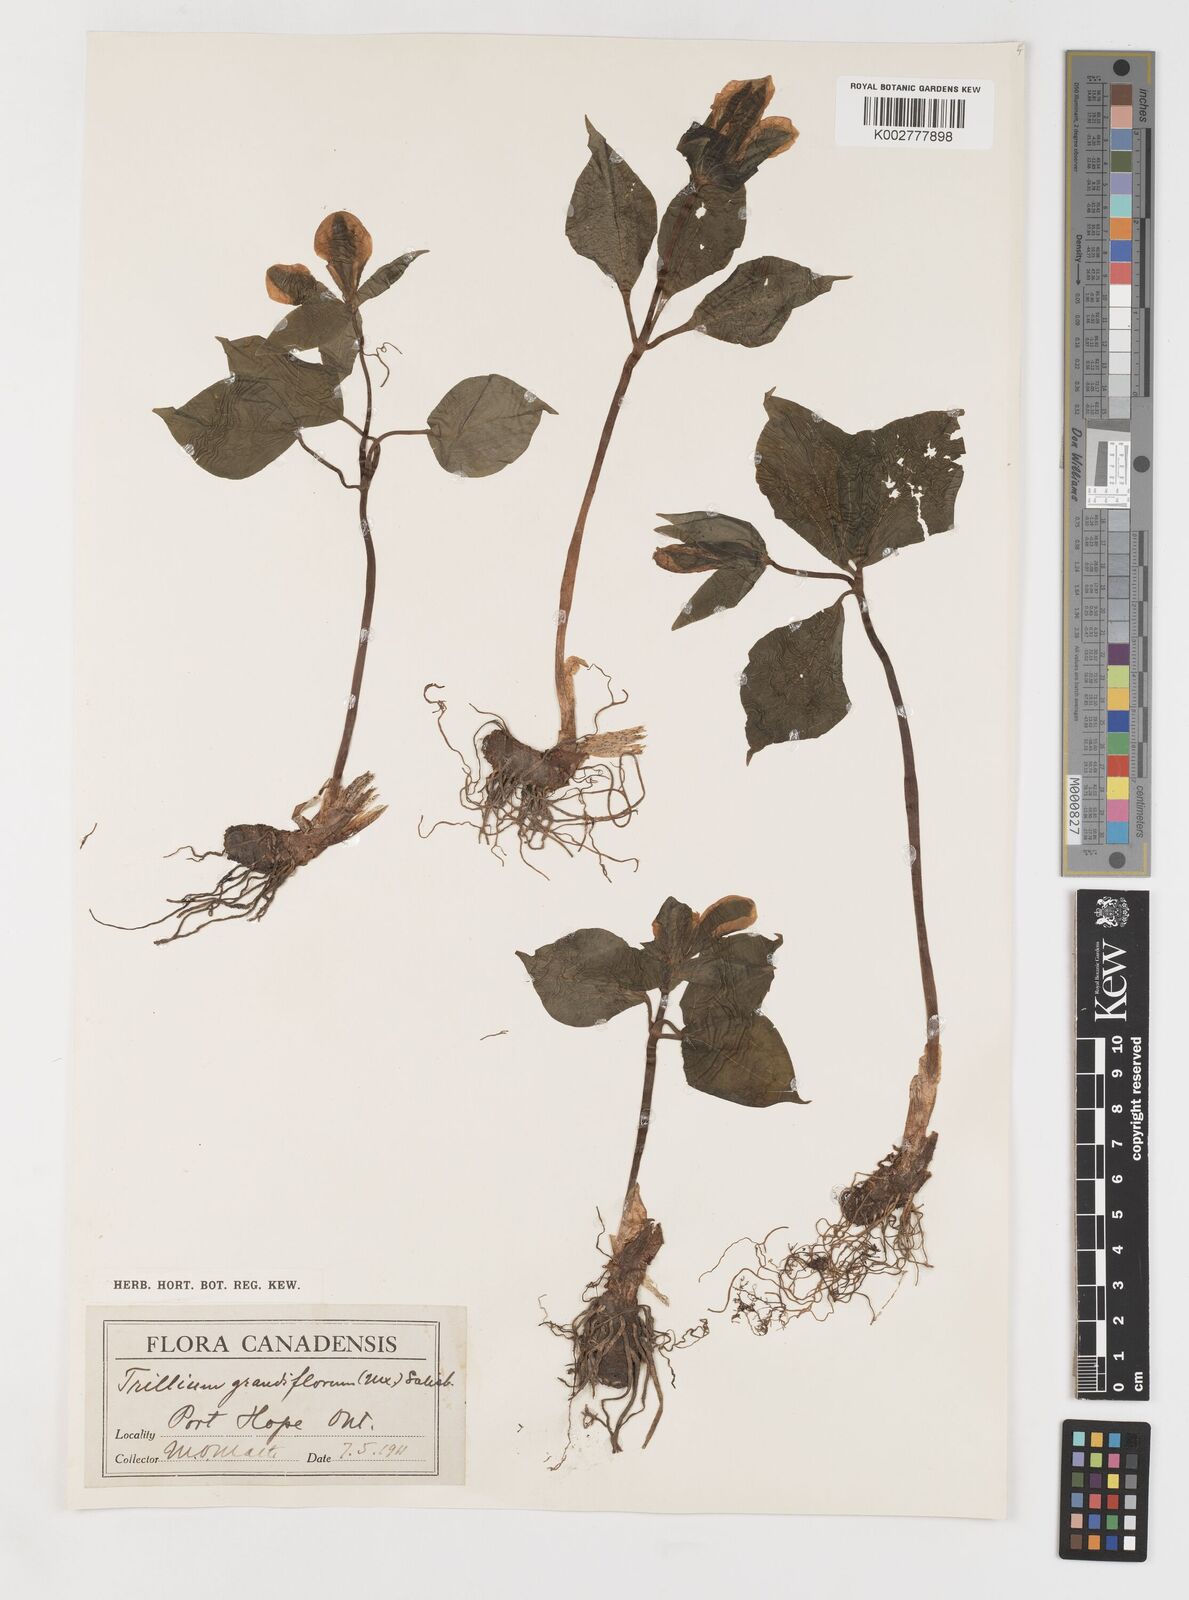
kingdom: Plantae
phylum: Tracheophyta
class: Liliopsida
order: Liliales
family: Melanthiaceae
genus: Trillium
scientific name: Trillium grandiflorum
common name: Great white trillium
